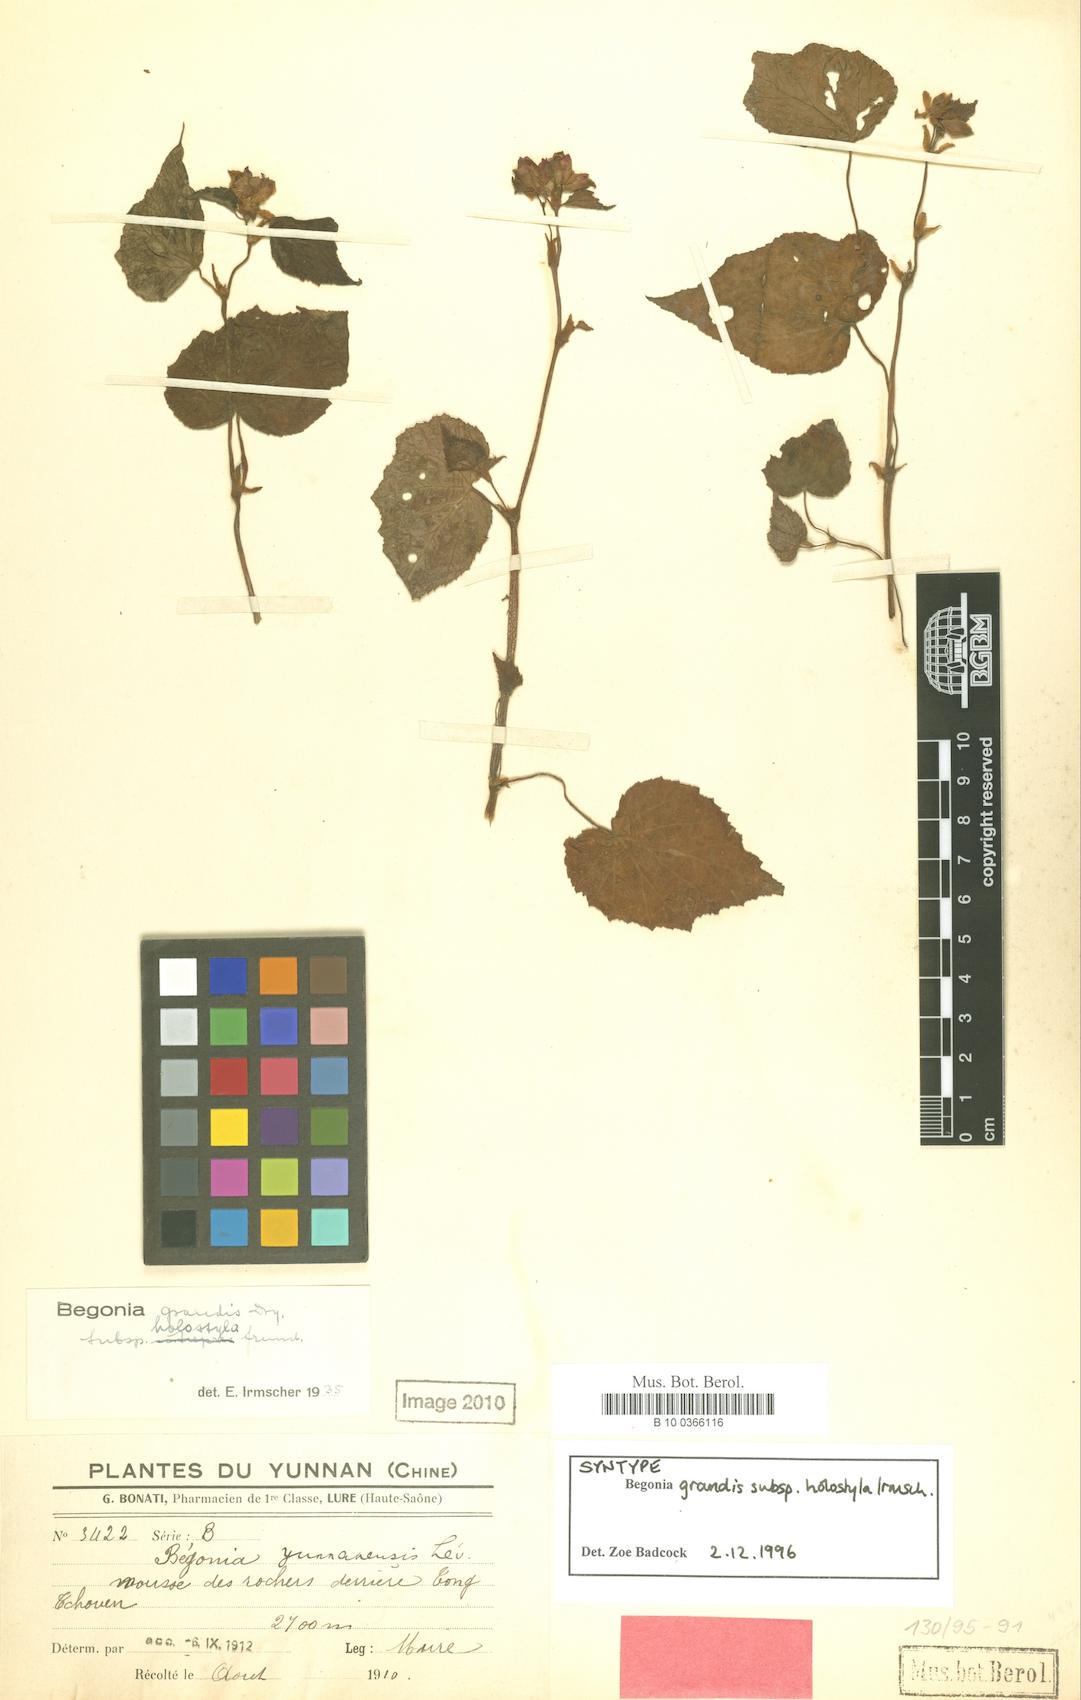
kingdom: Plantae
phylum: Tracheophyta
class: Magnoliopsida
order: Cucurbitales
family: Begoniaceae
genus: Begonia
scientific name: Begonia grandis
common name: Hardy begonia
